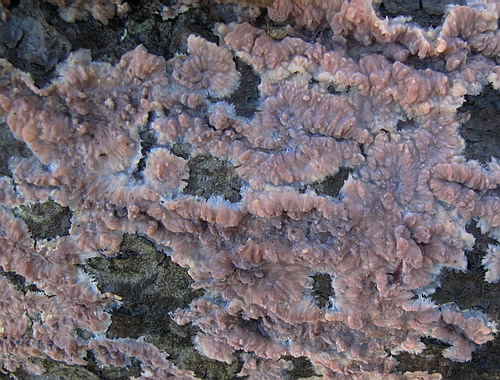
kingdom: Fungi
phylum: Basidiomycota
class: Agaricomycetes
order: Polyporales
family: Meruliaceae
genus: Phlebia
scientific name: Phlebia radiata
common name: stråle-åresvamp
